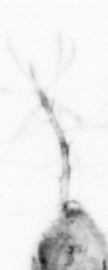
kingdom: Animalia
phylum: Arthropoda
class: Copepoda
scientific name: Copepoda
